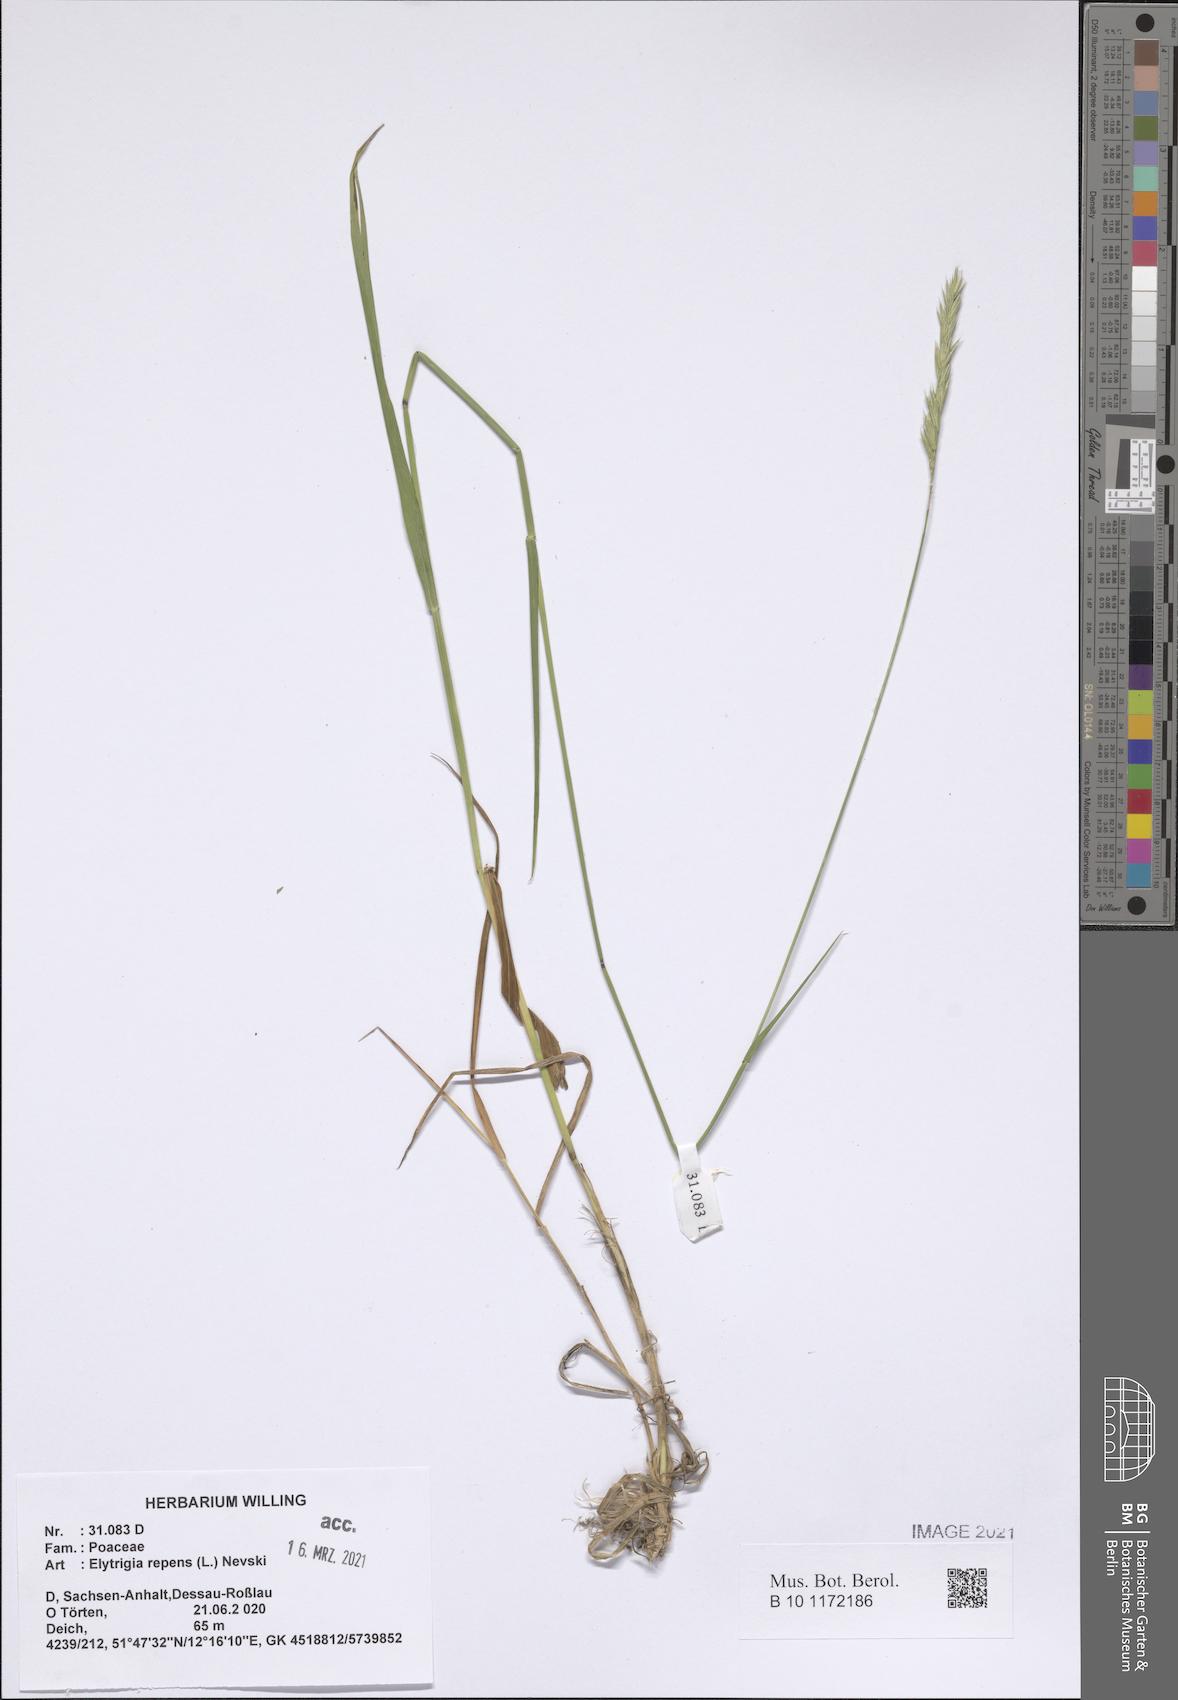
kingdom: Plantae
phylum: Tracheophyta
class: Liliopsida
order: Poales
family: Poaceae
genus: Elymus
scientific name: Elymus repens
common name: Quackgrass
